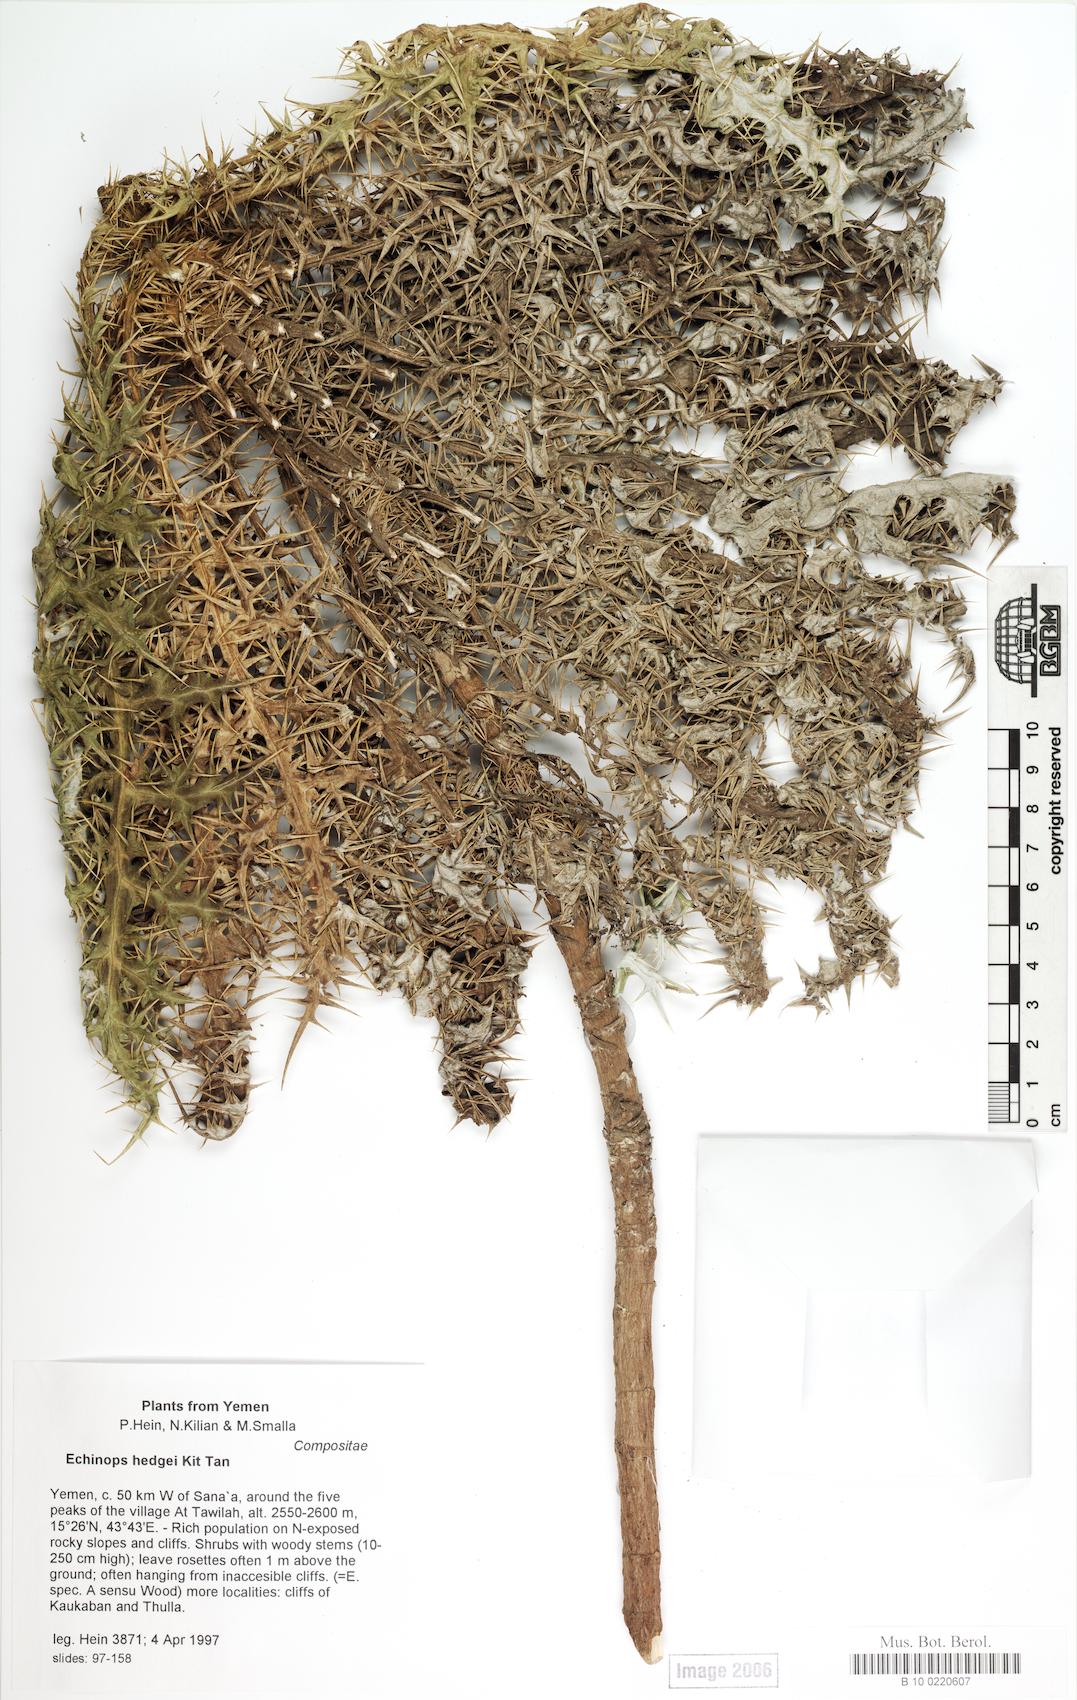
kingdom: Plantae
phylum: Tracheophyta
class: Magnoliopsida
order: Caryophyllales
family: Caryophyllaceae
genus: Stellaria
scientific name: Stellaria apetala
